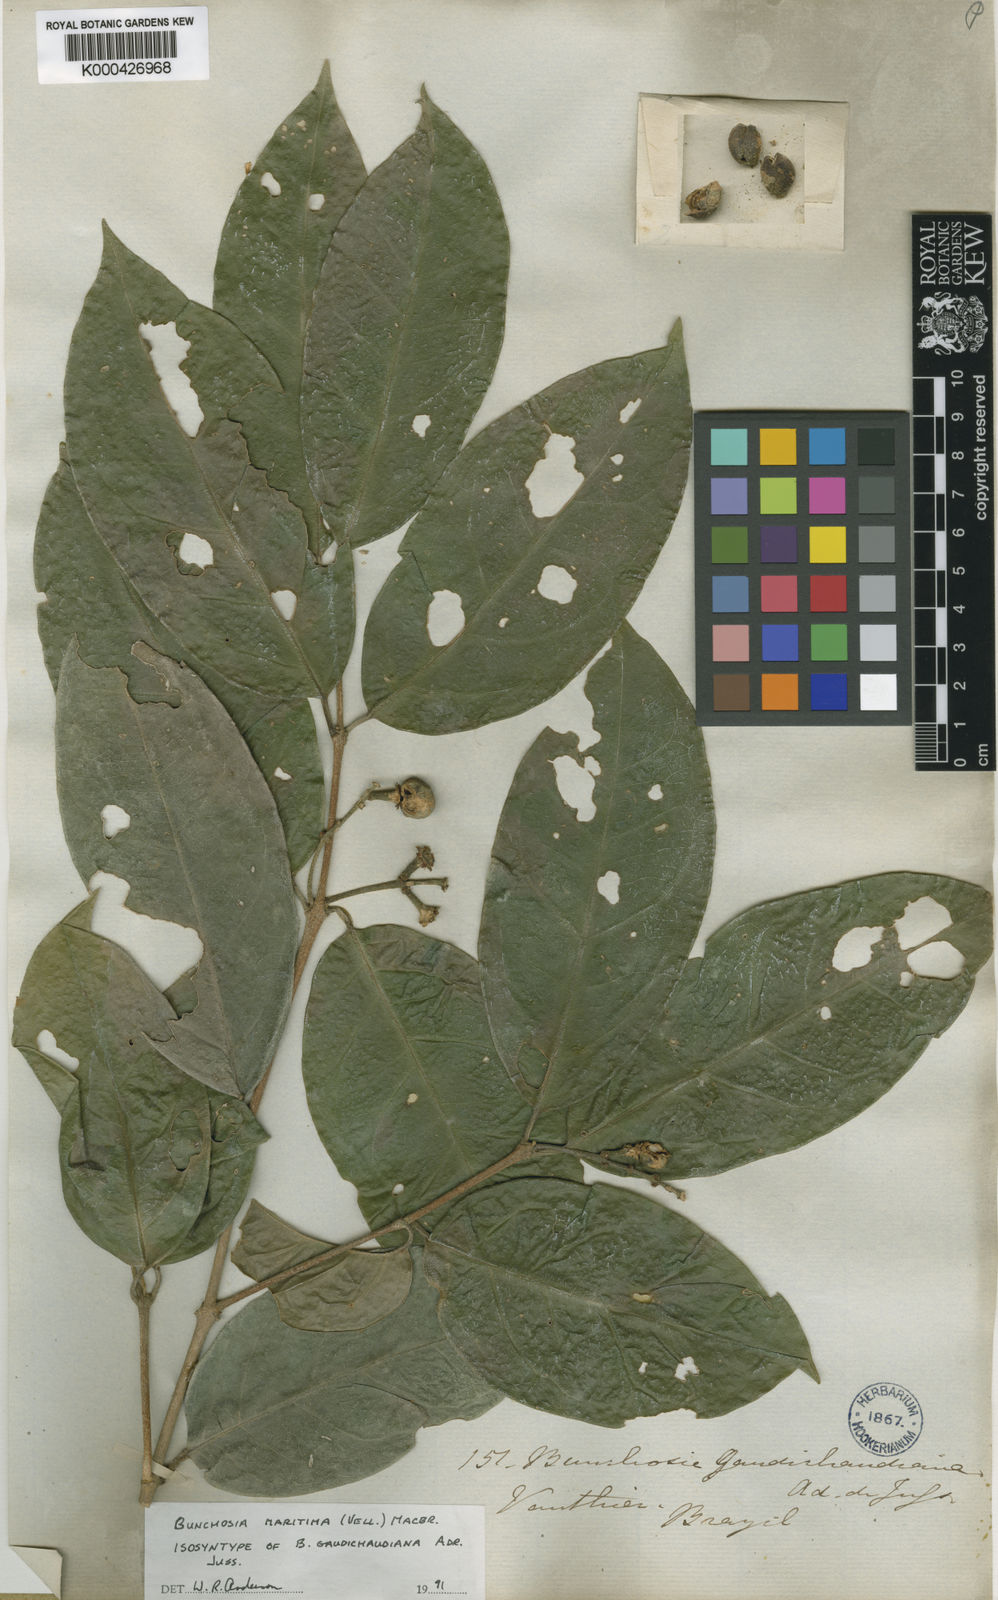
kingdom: Plantae
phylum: Tracheophyta
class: Magnoliopsida
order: Malpighiales
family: Malpighiaceae
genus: Bunchosia
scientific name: Bunchosia maritima
